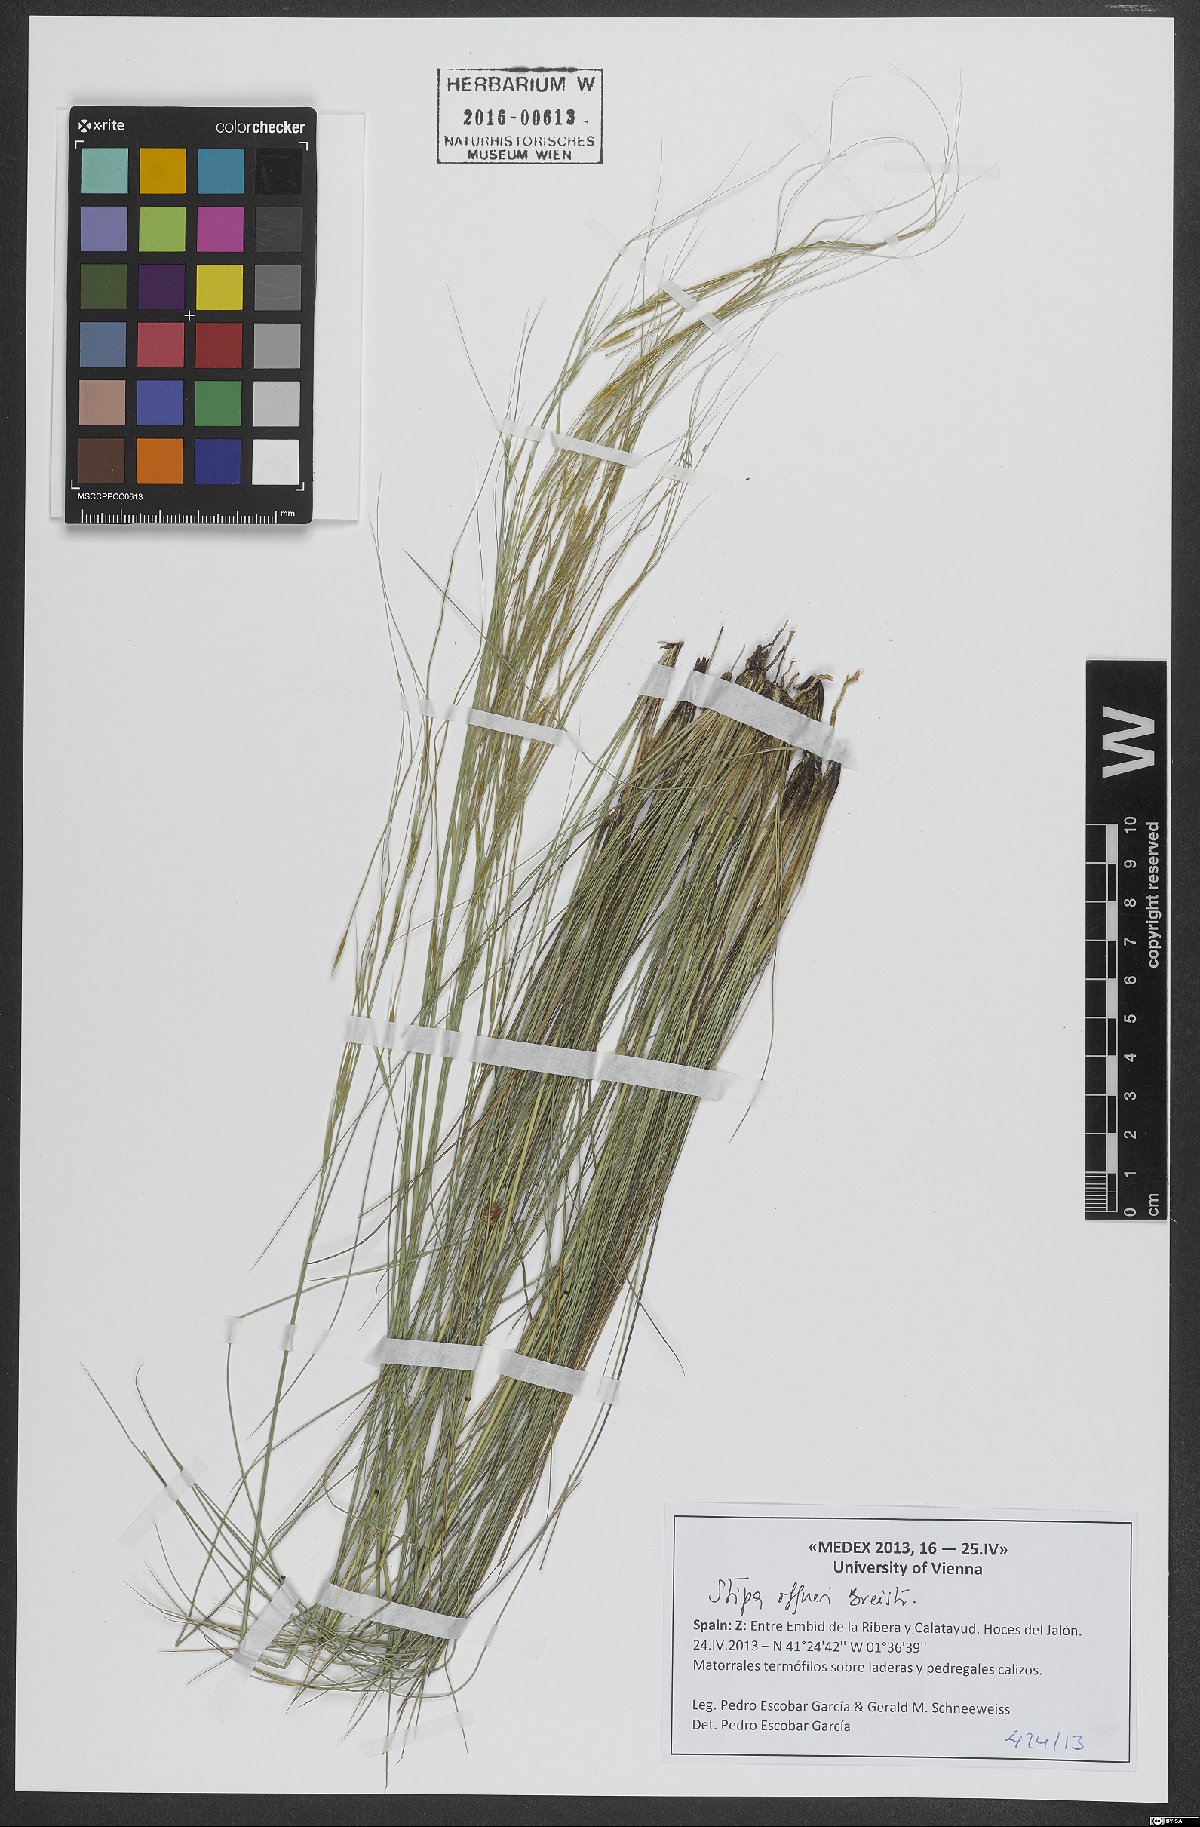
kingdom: Plantae
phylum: Tracheophyta
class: Liliopsida
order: Poales
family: Poaceae
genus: Stipa
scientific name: Stipa offneri
